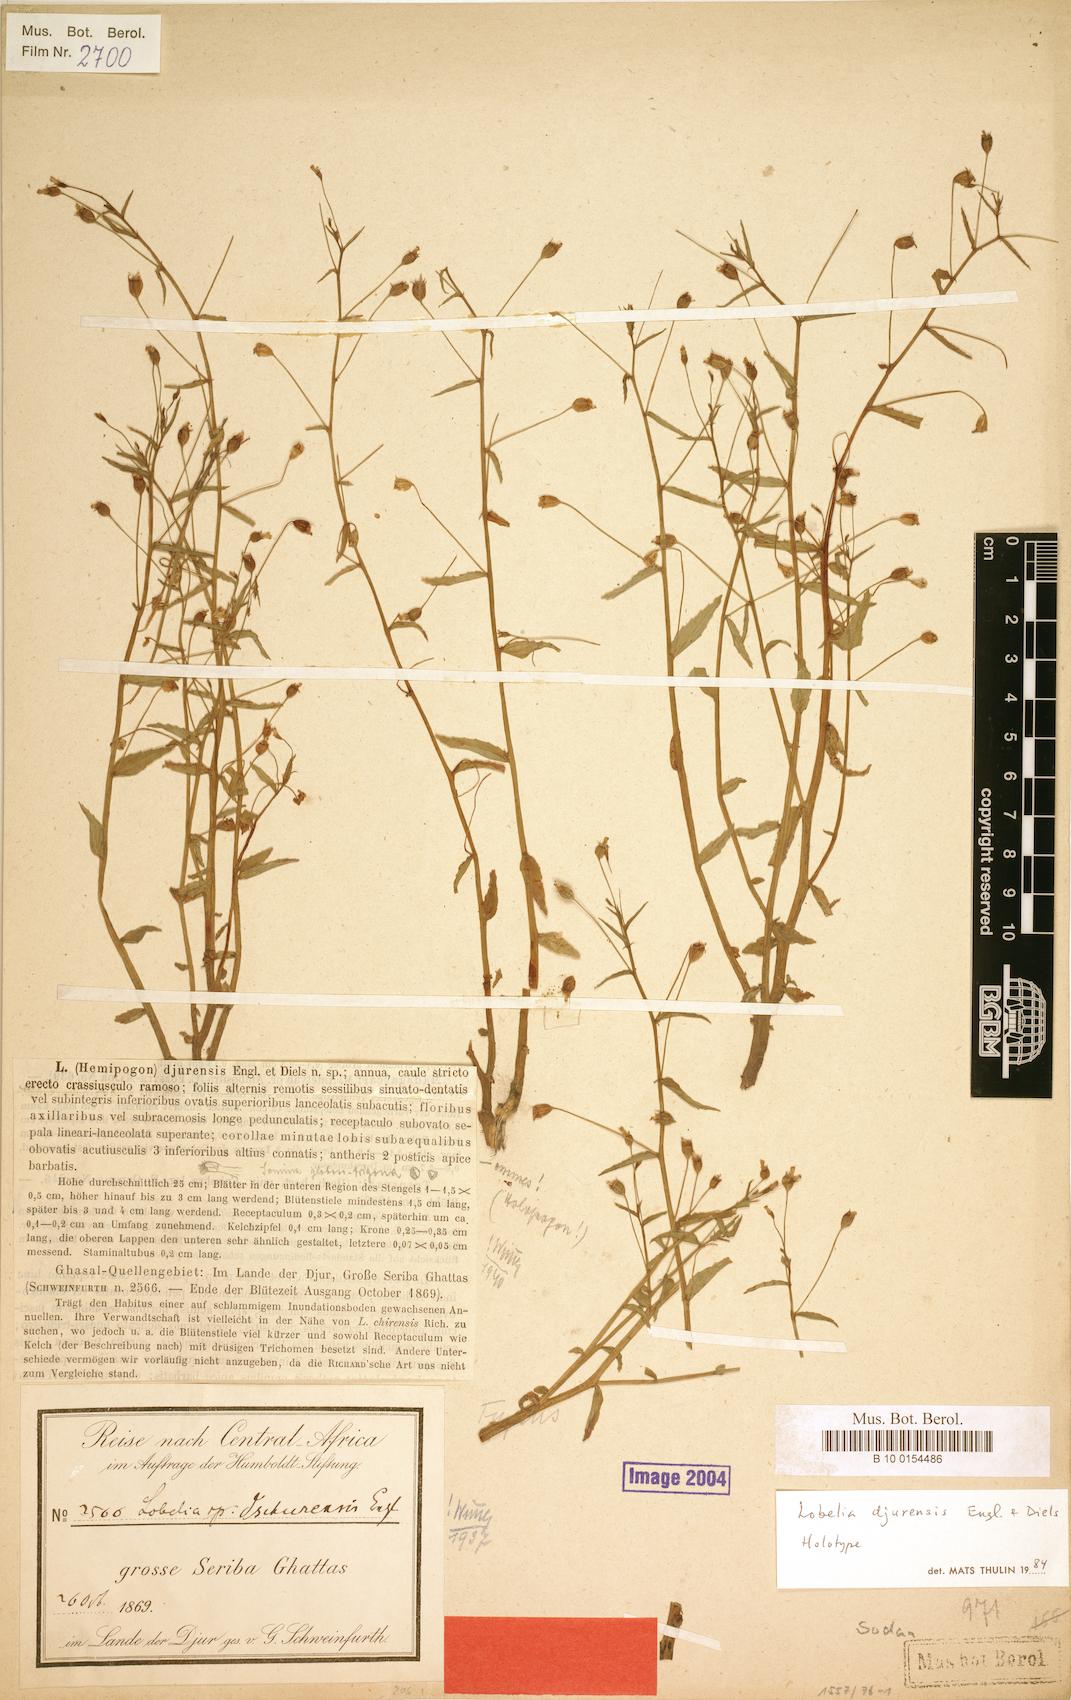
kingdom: Plantae
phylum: Tracheophyta
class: Magnoliopsida
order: Asterales
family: Campanulaceae
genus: Lobelia
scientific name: Lobelia djurensis
